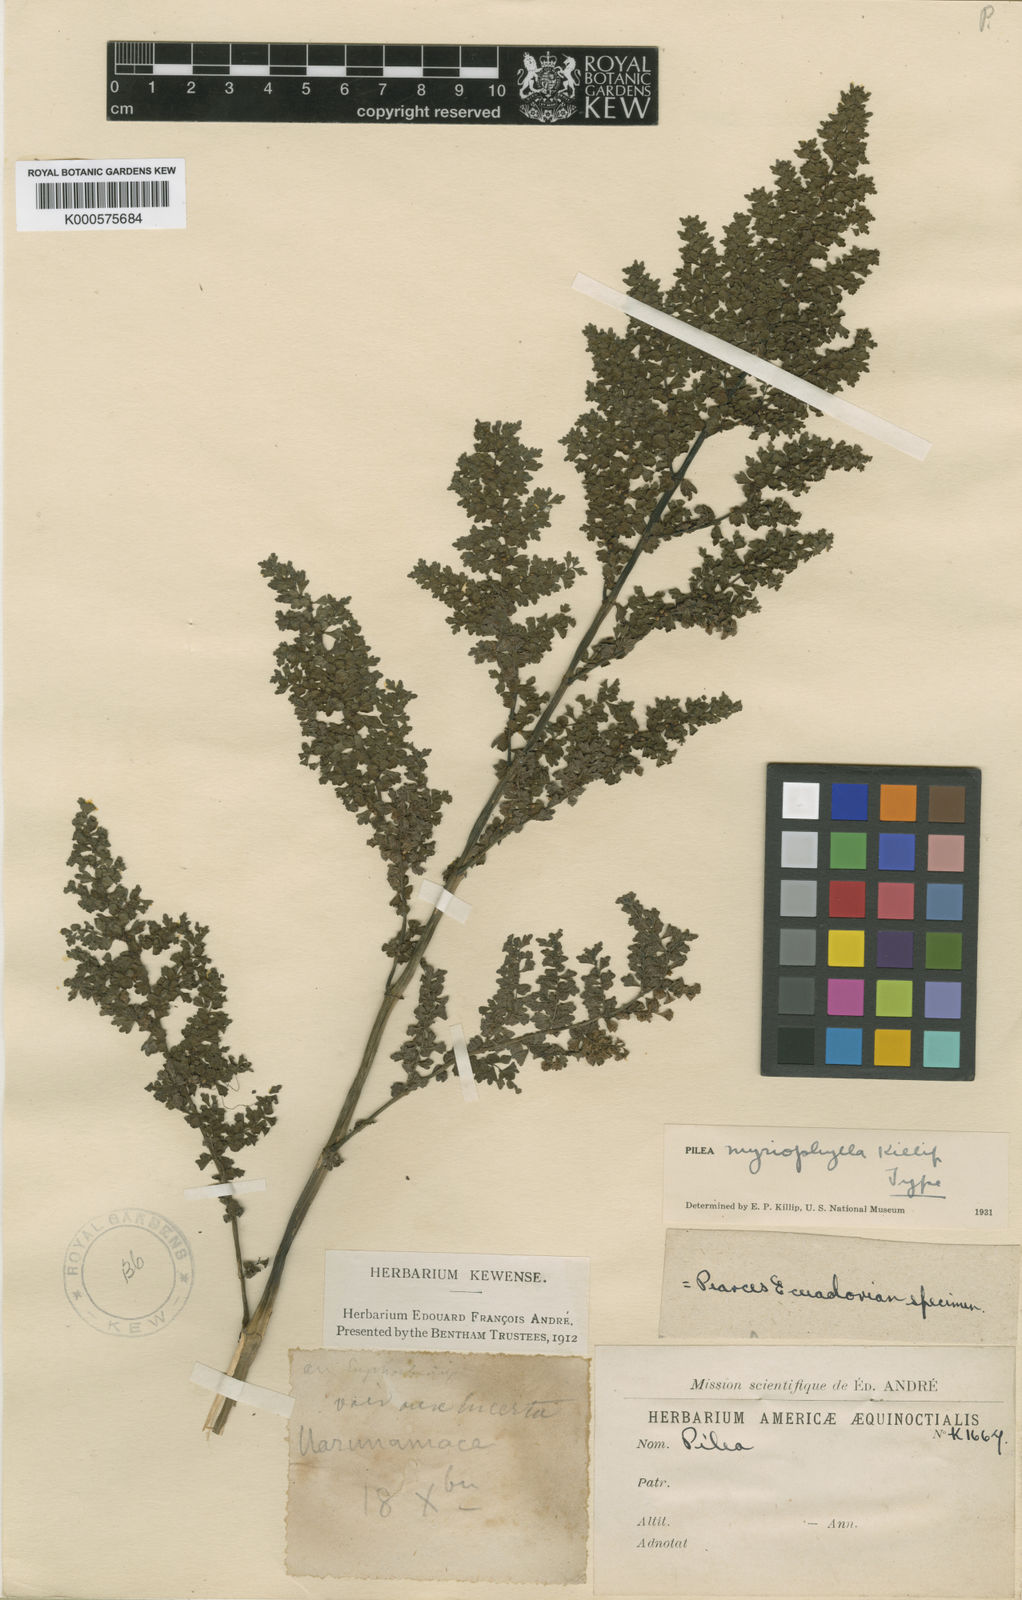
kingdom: Plantae
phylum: Tracheophyta
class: Magnoliopsida
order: Rosales
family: Urticaceae
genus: Pilea
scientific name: Pilea myriophylla
